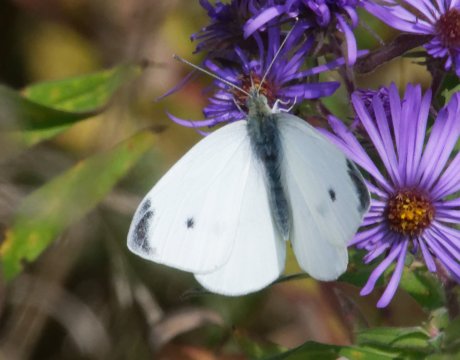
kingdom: Animalia
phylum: Arthropoda
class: Insecta
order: Lepidoptera
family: Pieridae
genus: Pieris
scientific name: Pieris rapae
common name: Cabbage White
